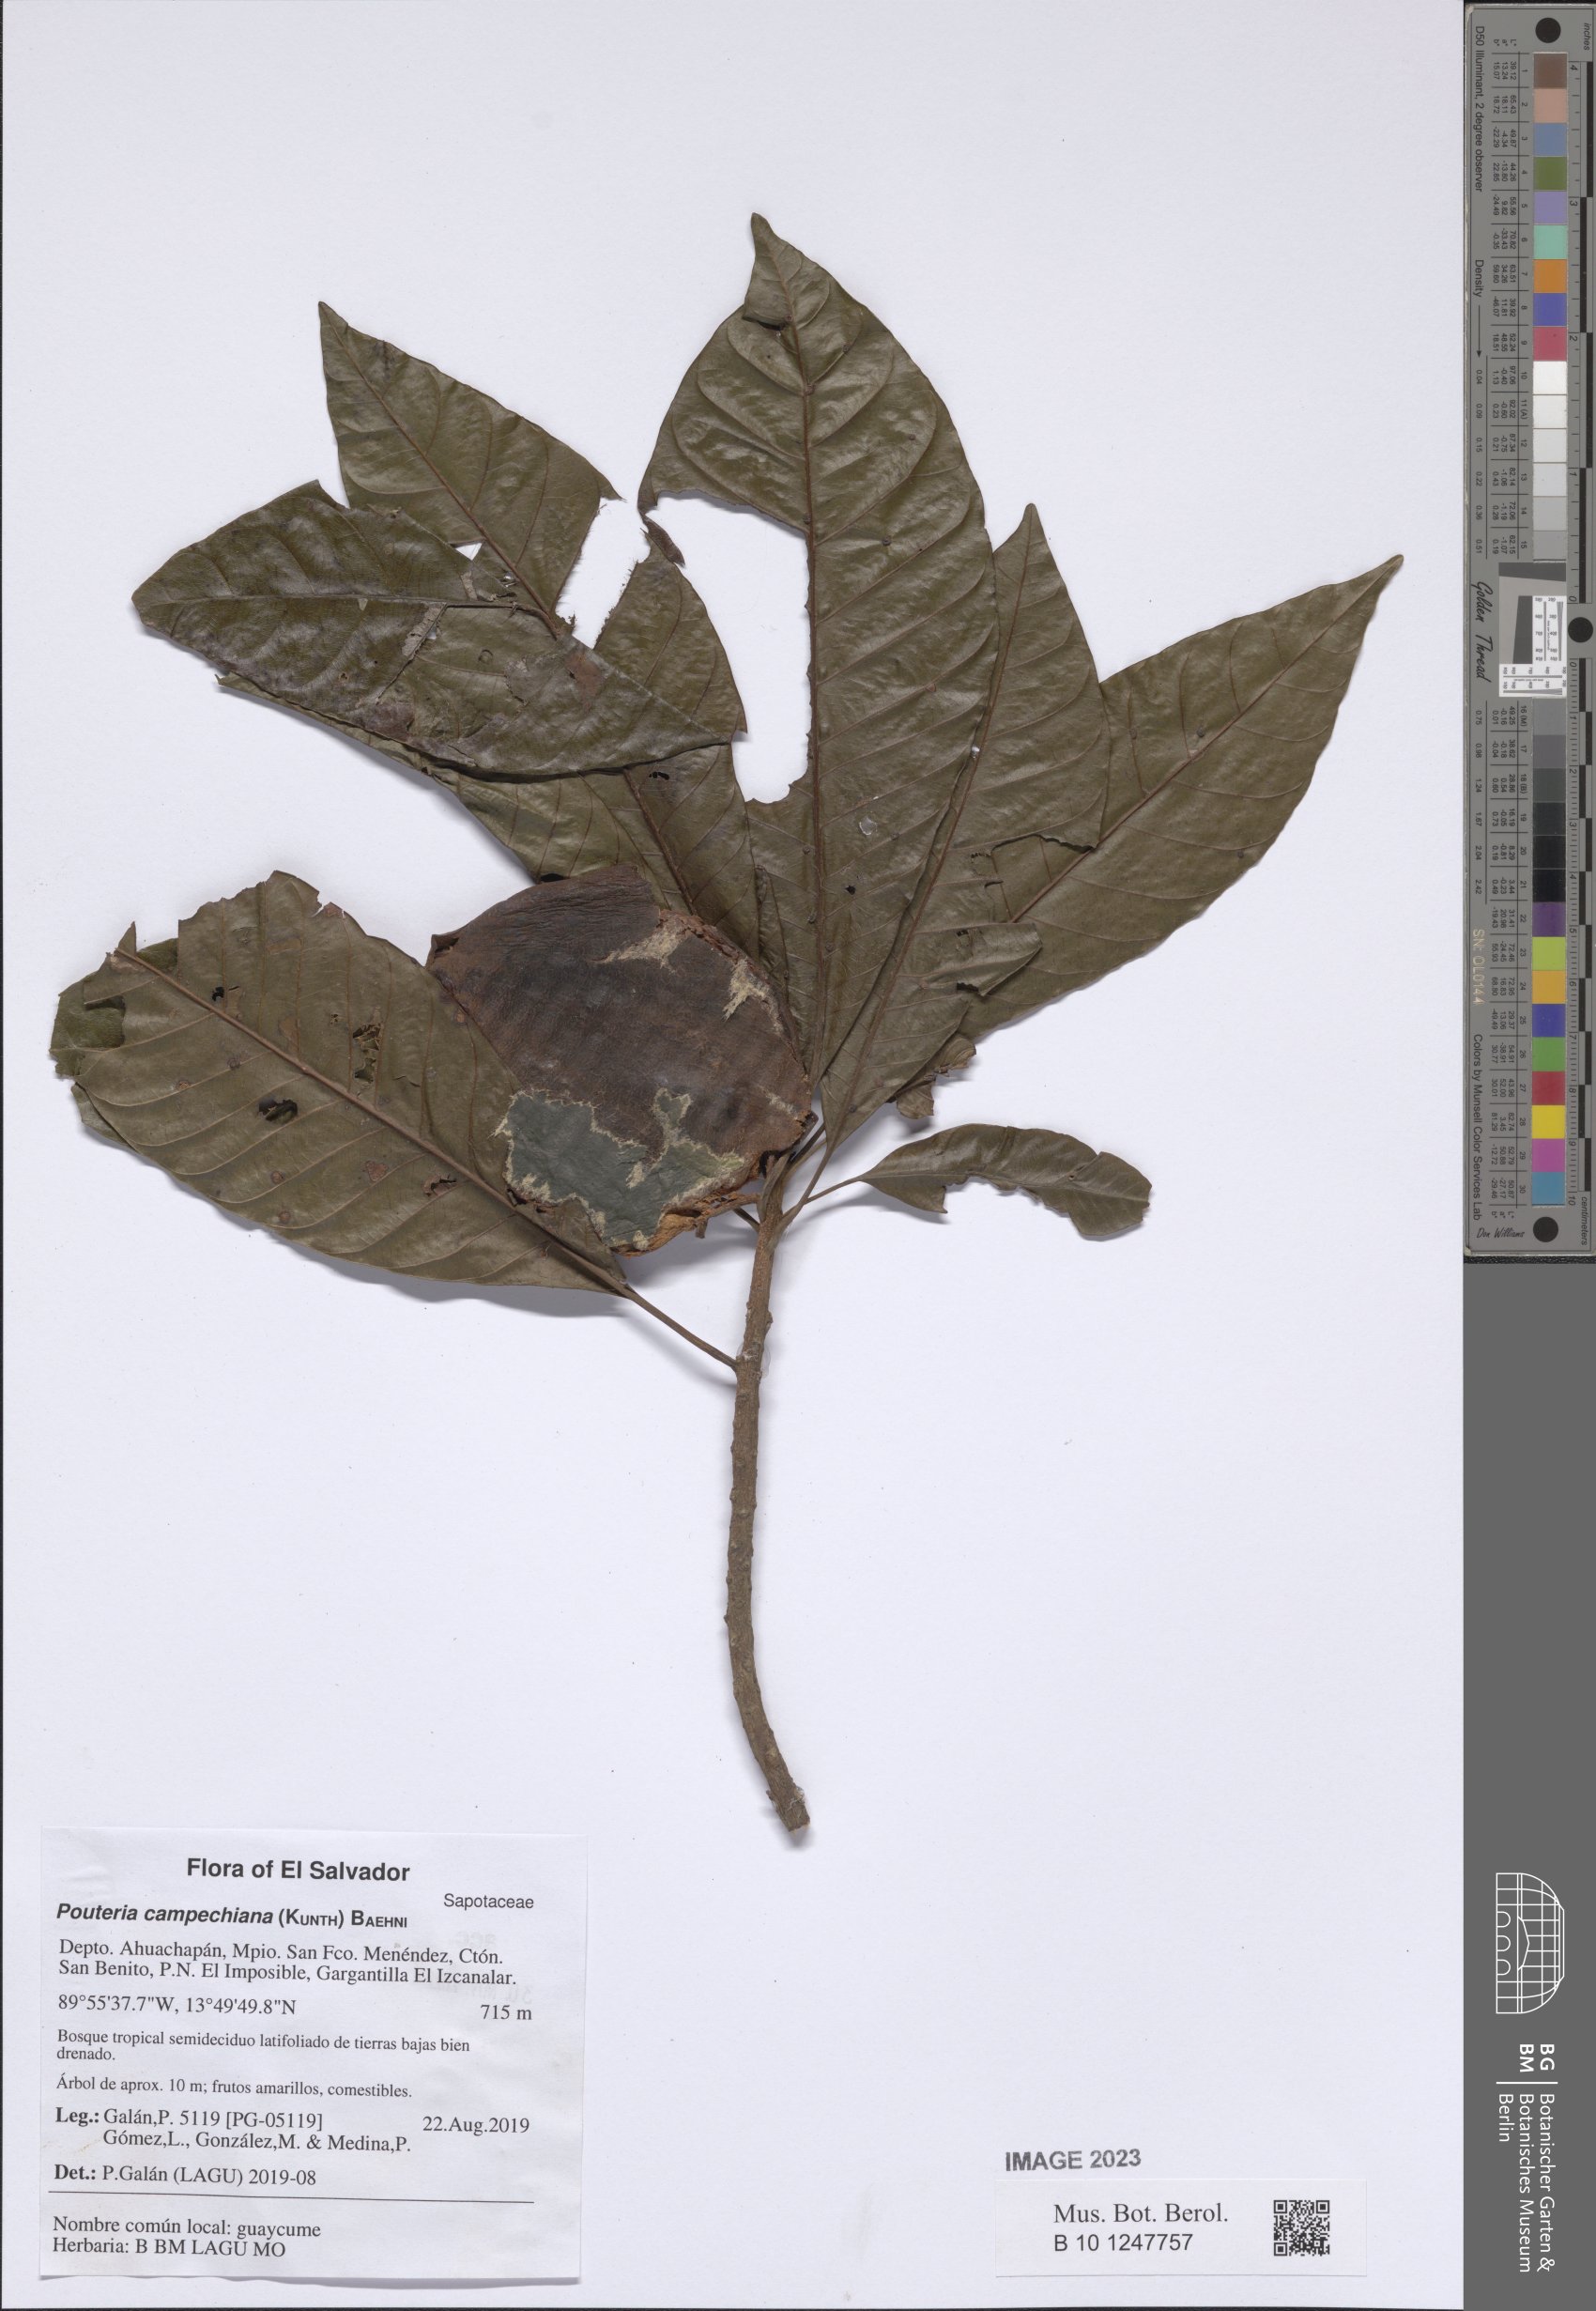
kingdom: Plantae
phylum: Tracheophyta
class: Magnoliopsida
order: Ericales
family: Sapotaceae
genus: Pouteria
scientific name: Pouteria campechiana
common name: Canistel
